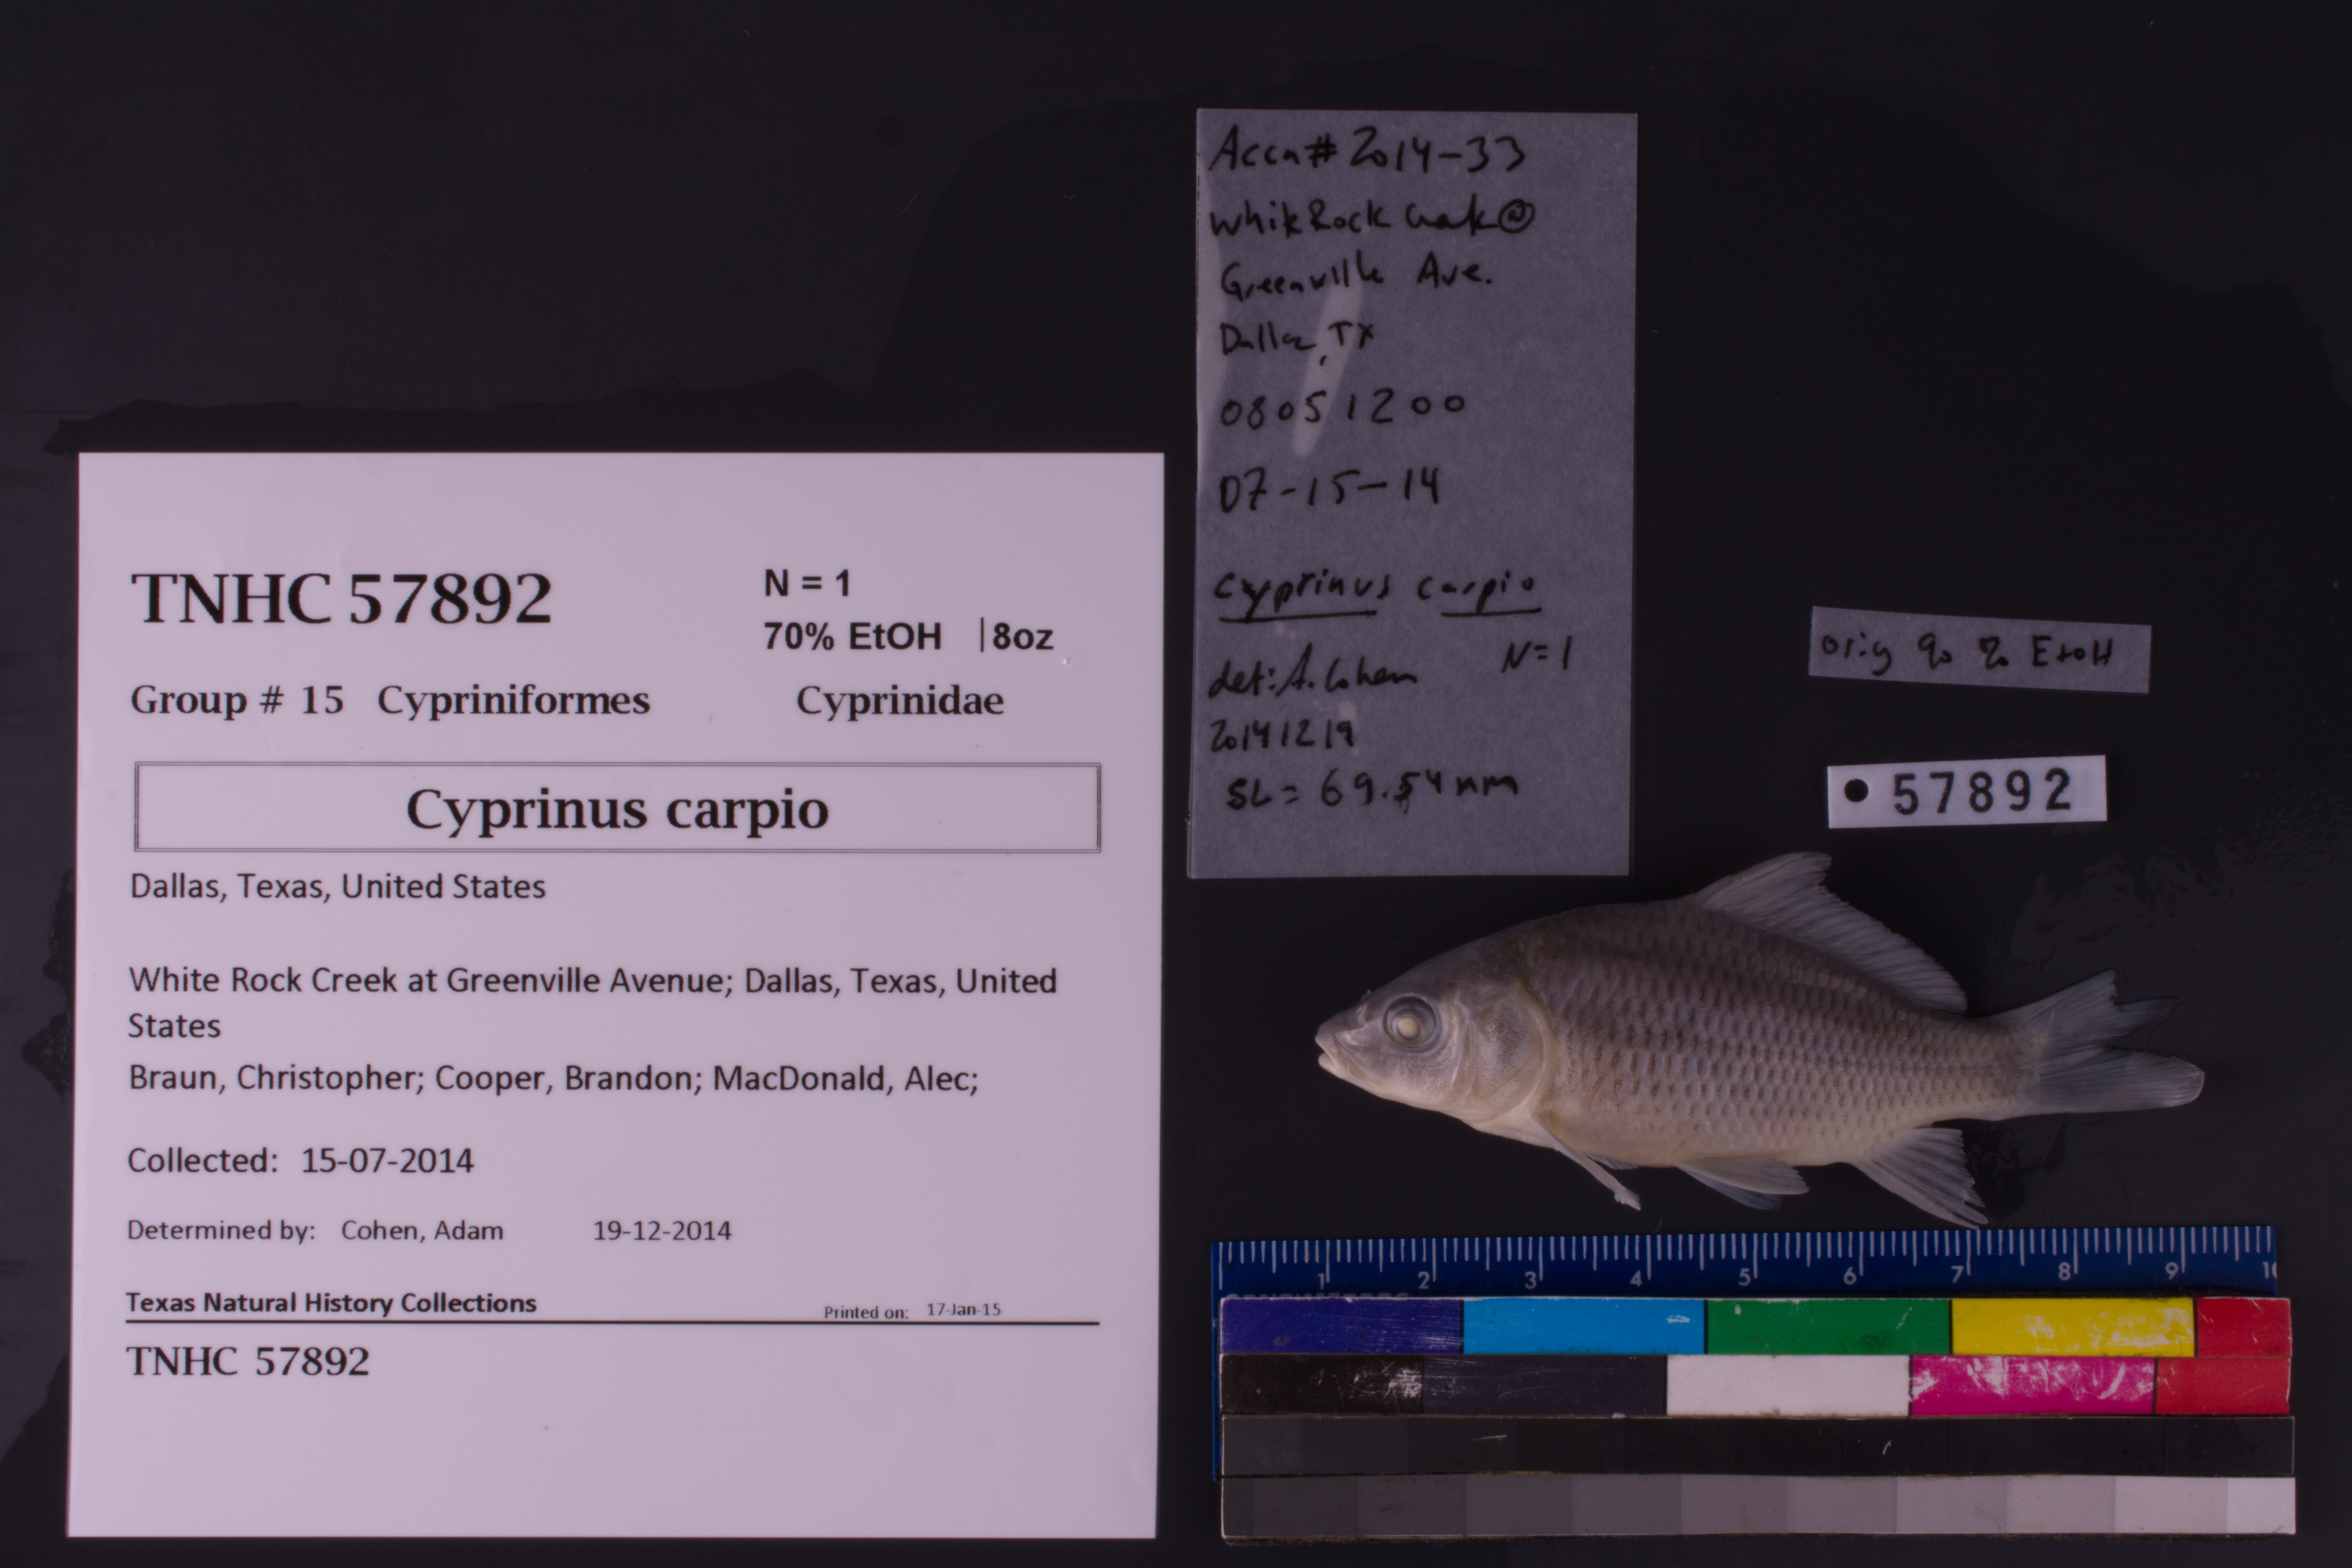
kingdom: Animalia
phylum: Chordata
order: Cypriniformes
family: Cyprinidae
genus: Cyprinus
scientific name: Cyprinus carpio
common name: Common carp
